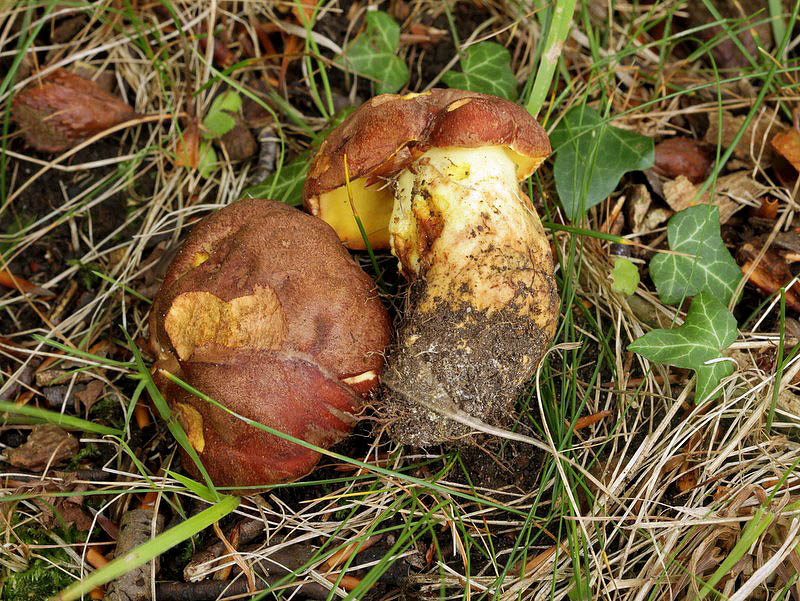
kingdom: Fungi
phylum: Basidiomycota
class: Agaricomycetes
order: Boletales
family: Boletaceae
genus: Butyriboletus
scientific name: Butyriboletus appendiculatus
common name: tenstokket rørhat
